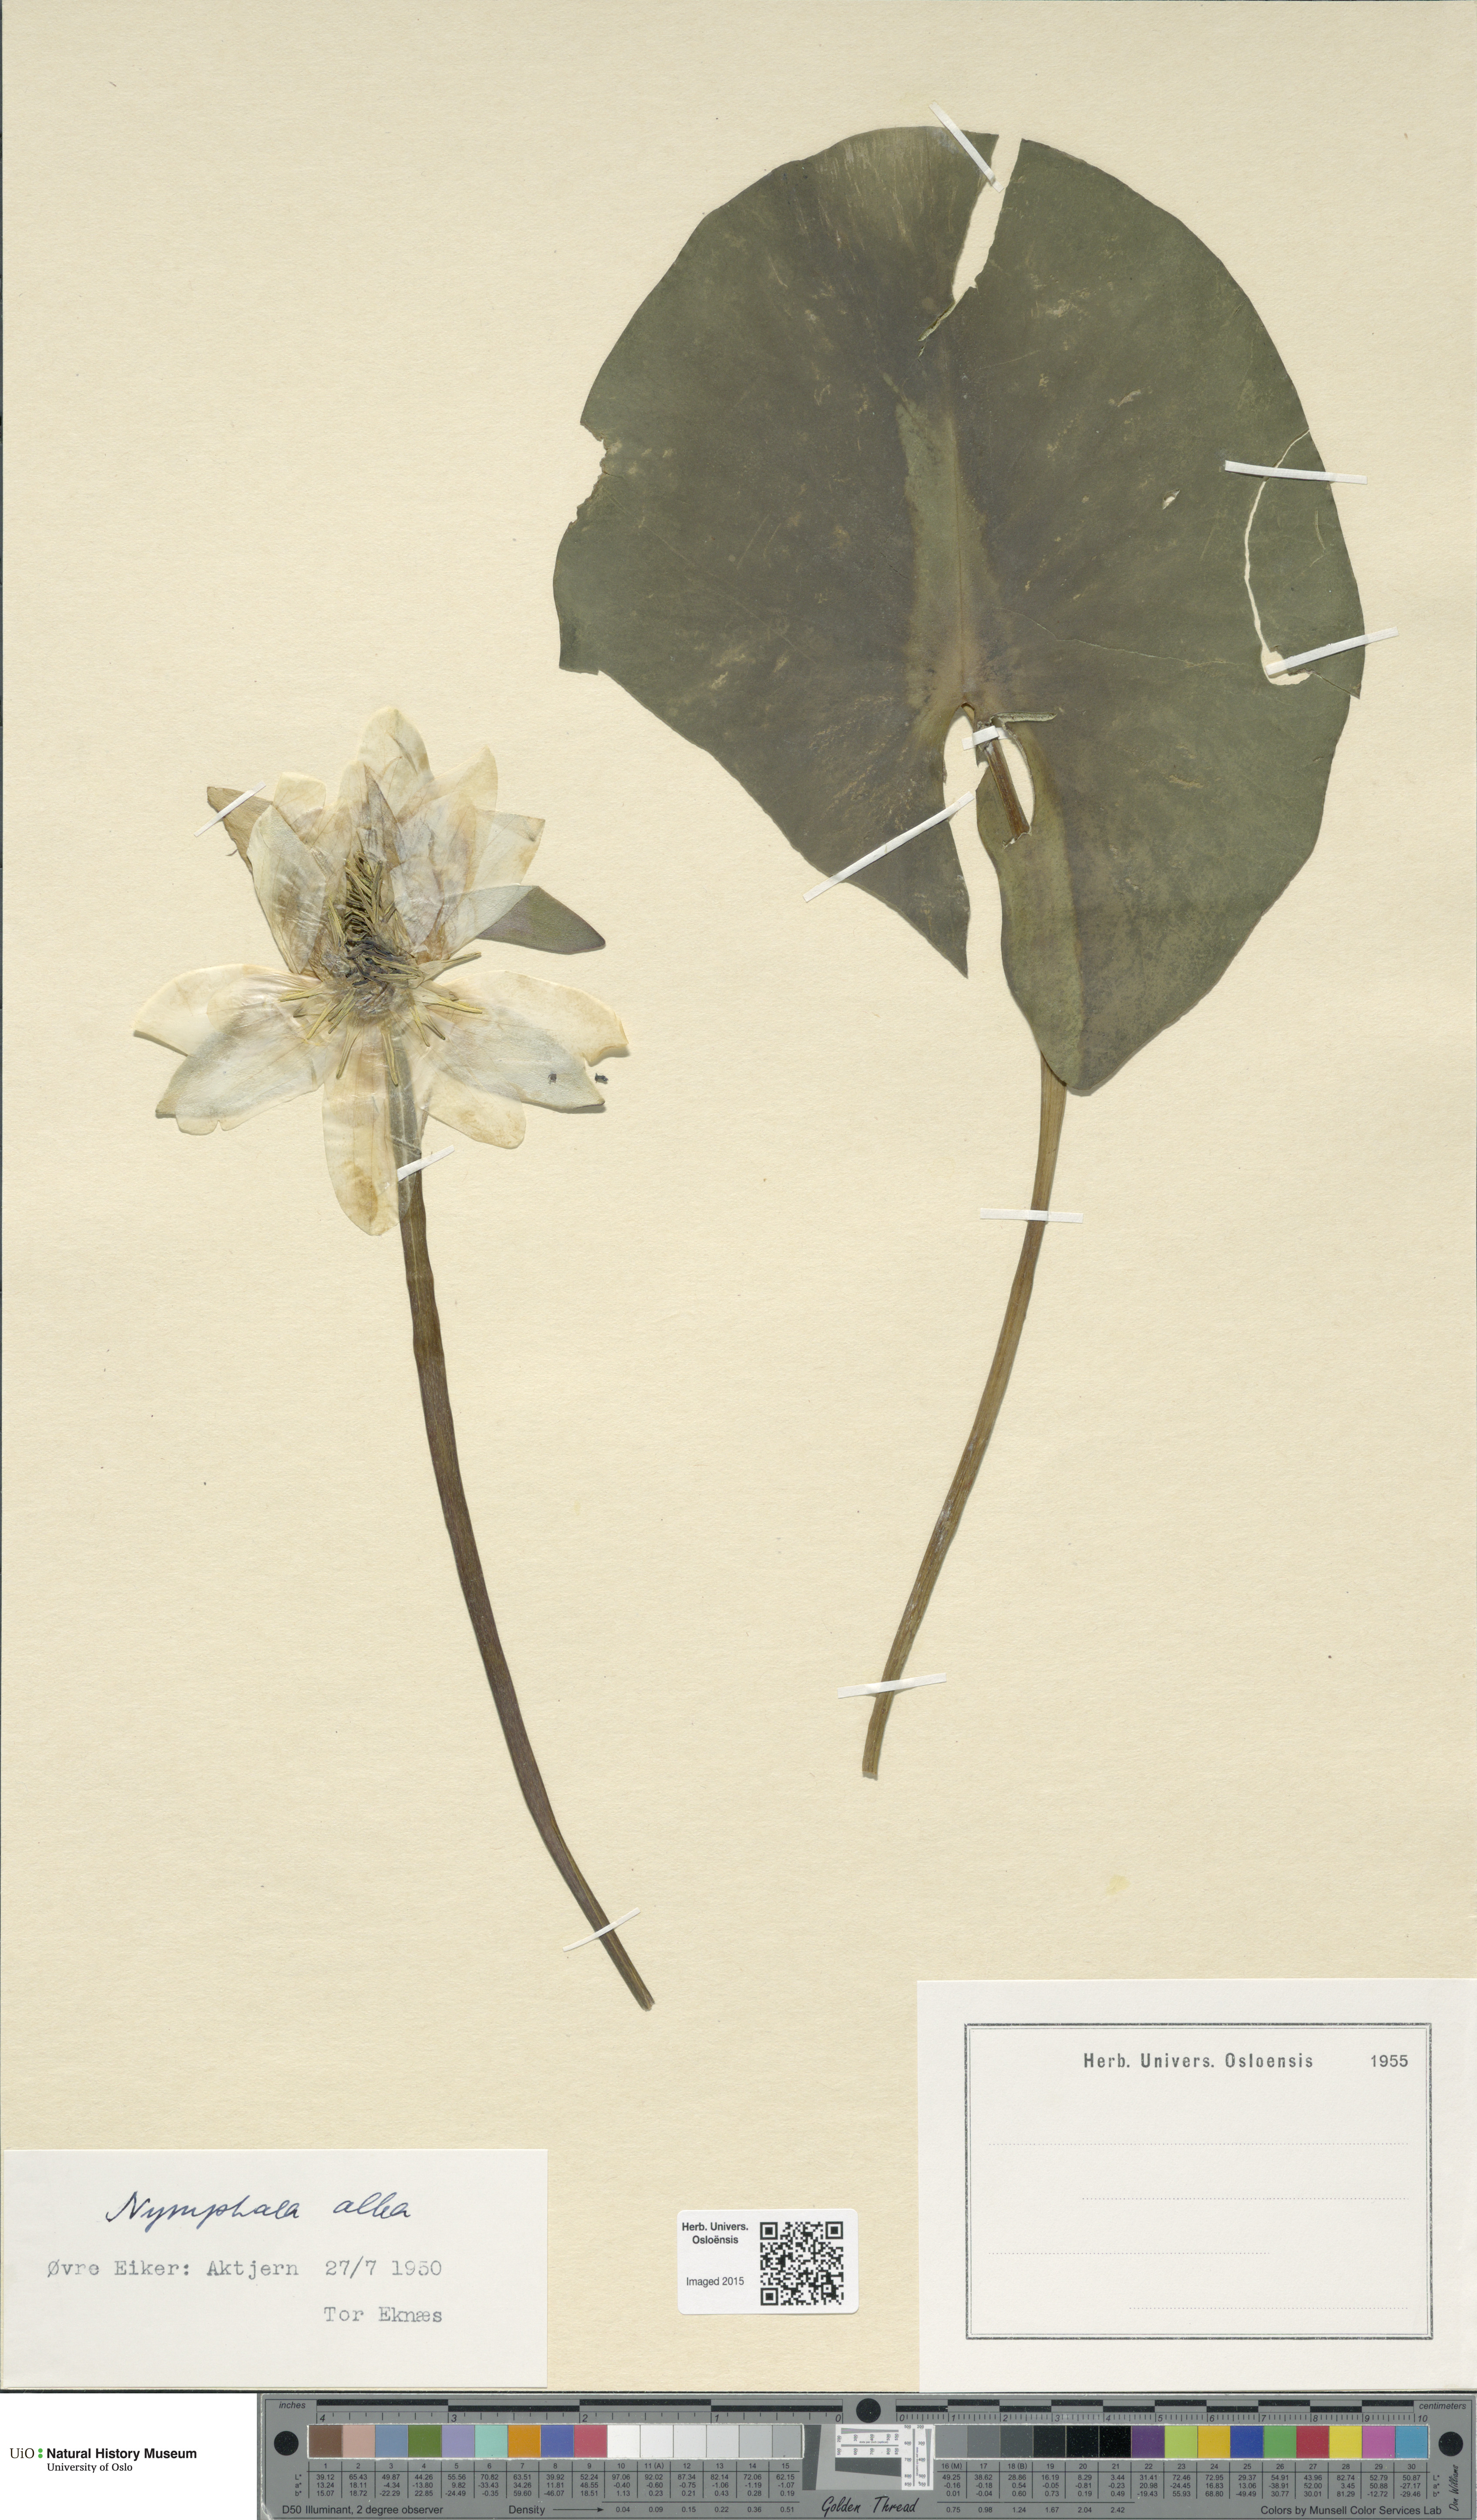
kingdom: Plantae
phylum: Tracheophyta
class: Magnoliopsida
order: Nymphaeales
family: Nymphaeaceae
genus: Nymphaea
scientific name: Nymphaea alba
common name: White water-lily
